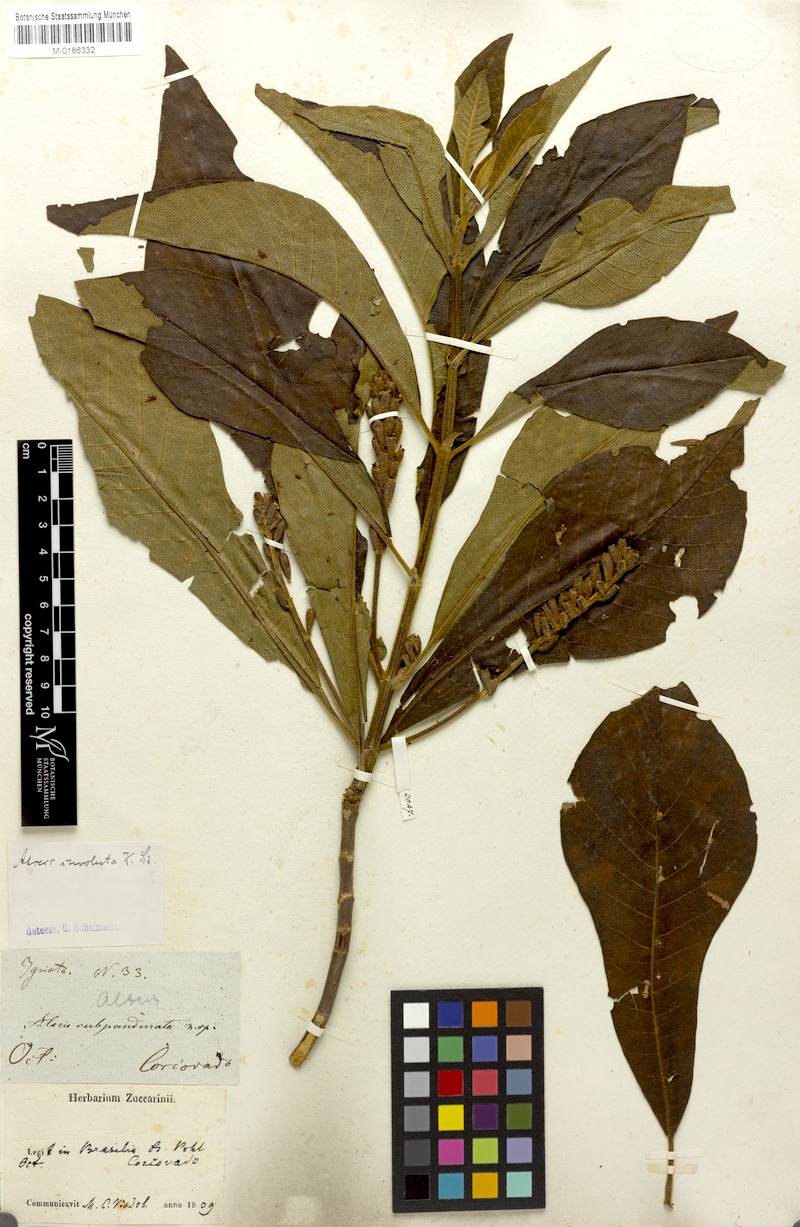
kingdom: Plantae
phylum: Tracheophyta
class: Magnoliopsida
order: Gentianales
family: Rubiaceae
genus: Alseis
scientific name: Alseis involuta
